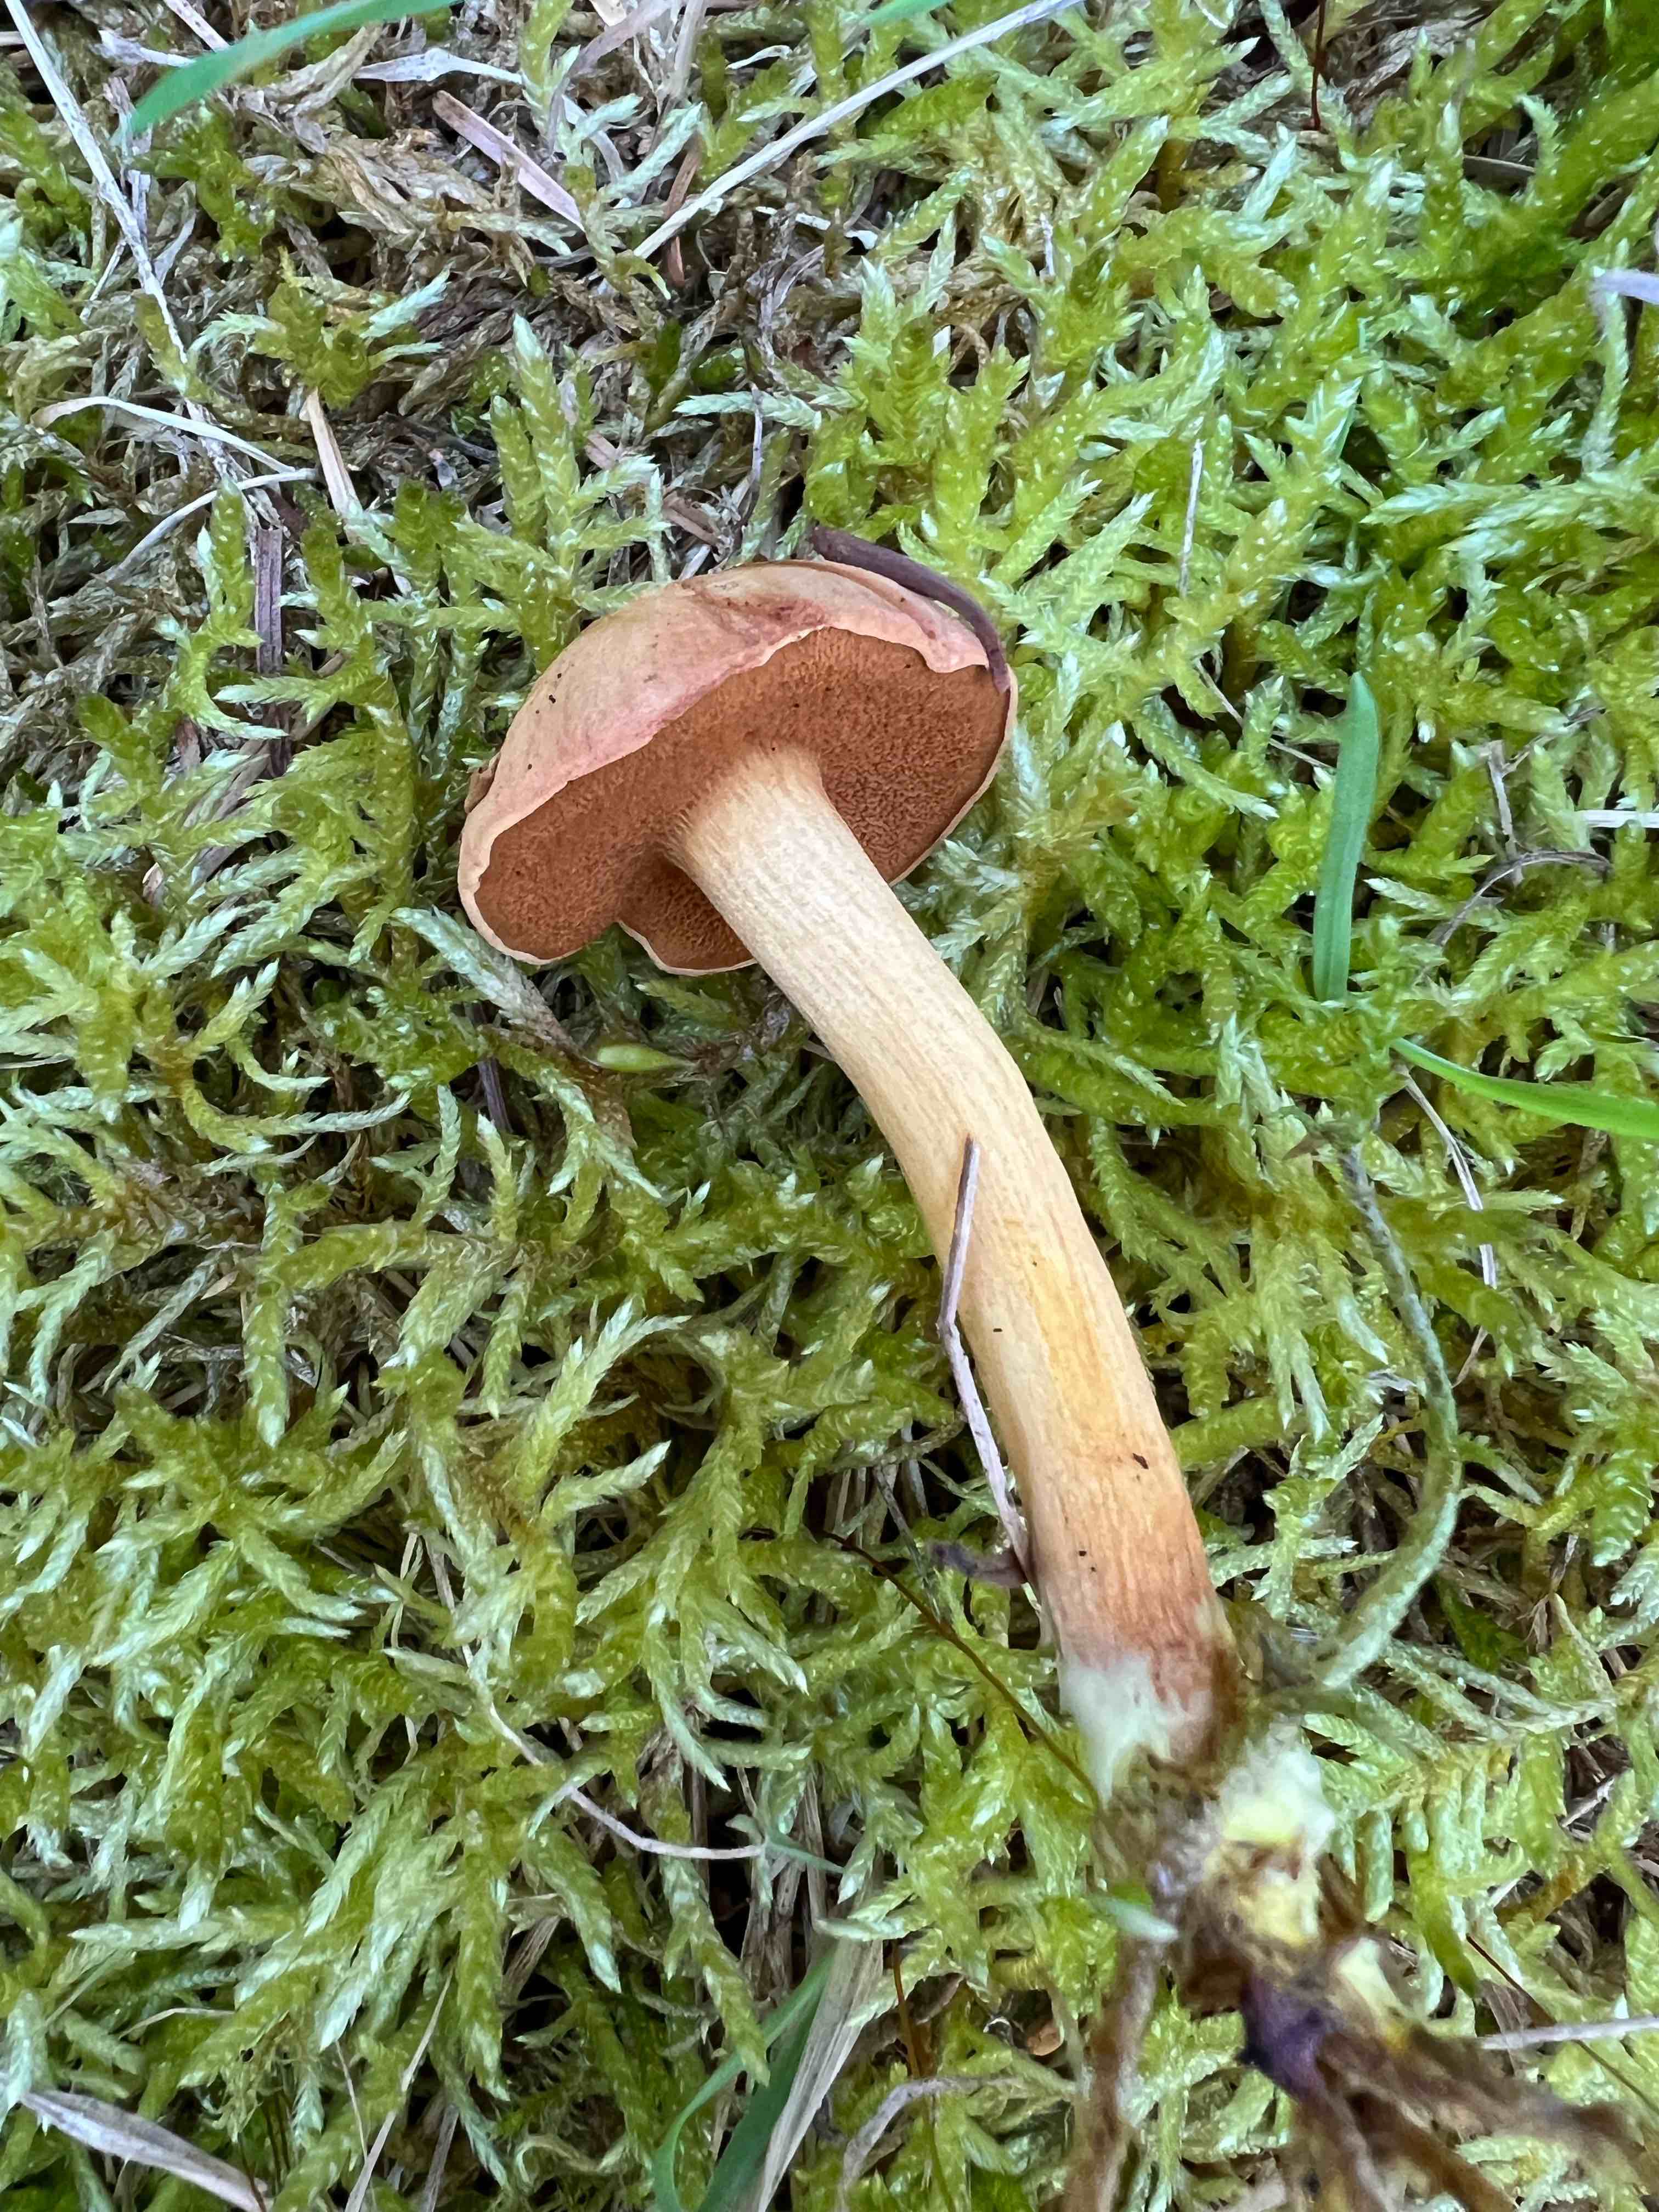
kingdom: Fungi
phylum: Basidiomycota
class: Agaricomycetes
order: Boletales
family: Boletaceae
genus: Chalciporus
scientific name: Chalciporus piperatus
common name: peberrørhat
